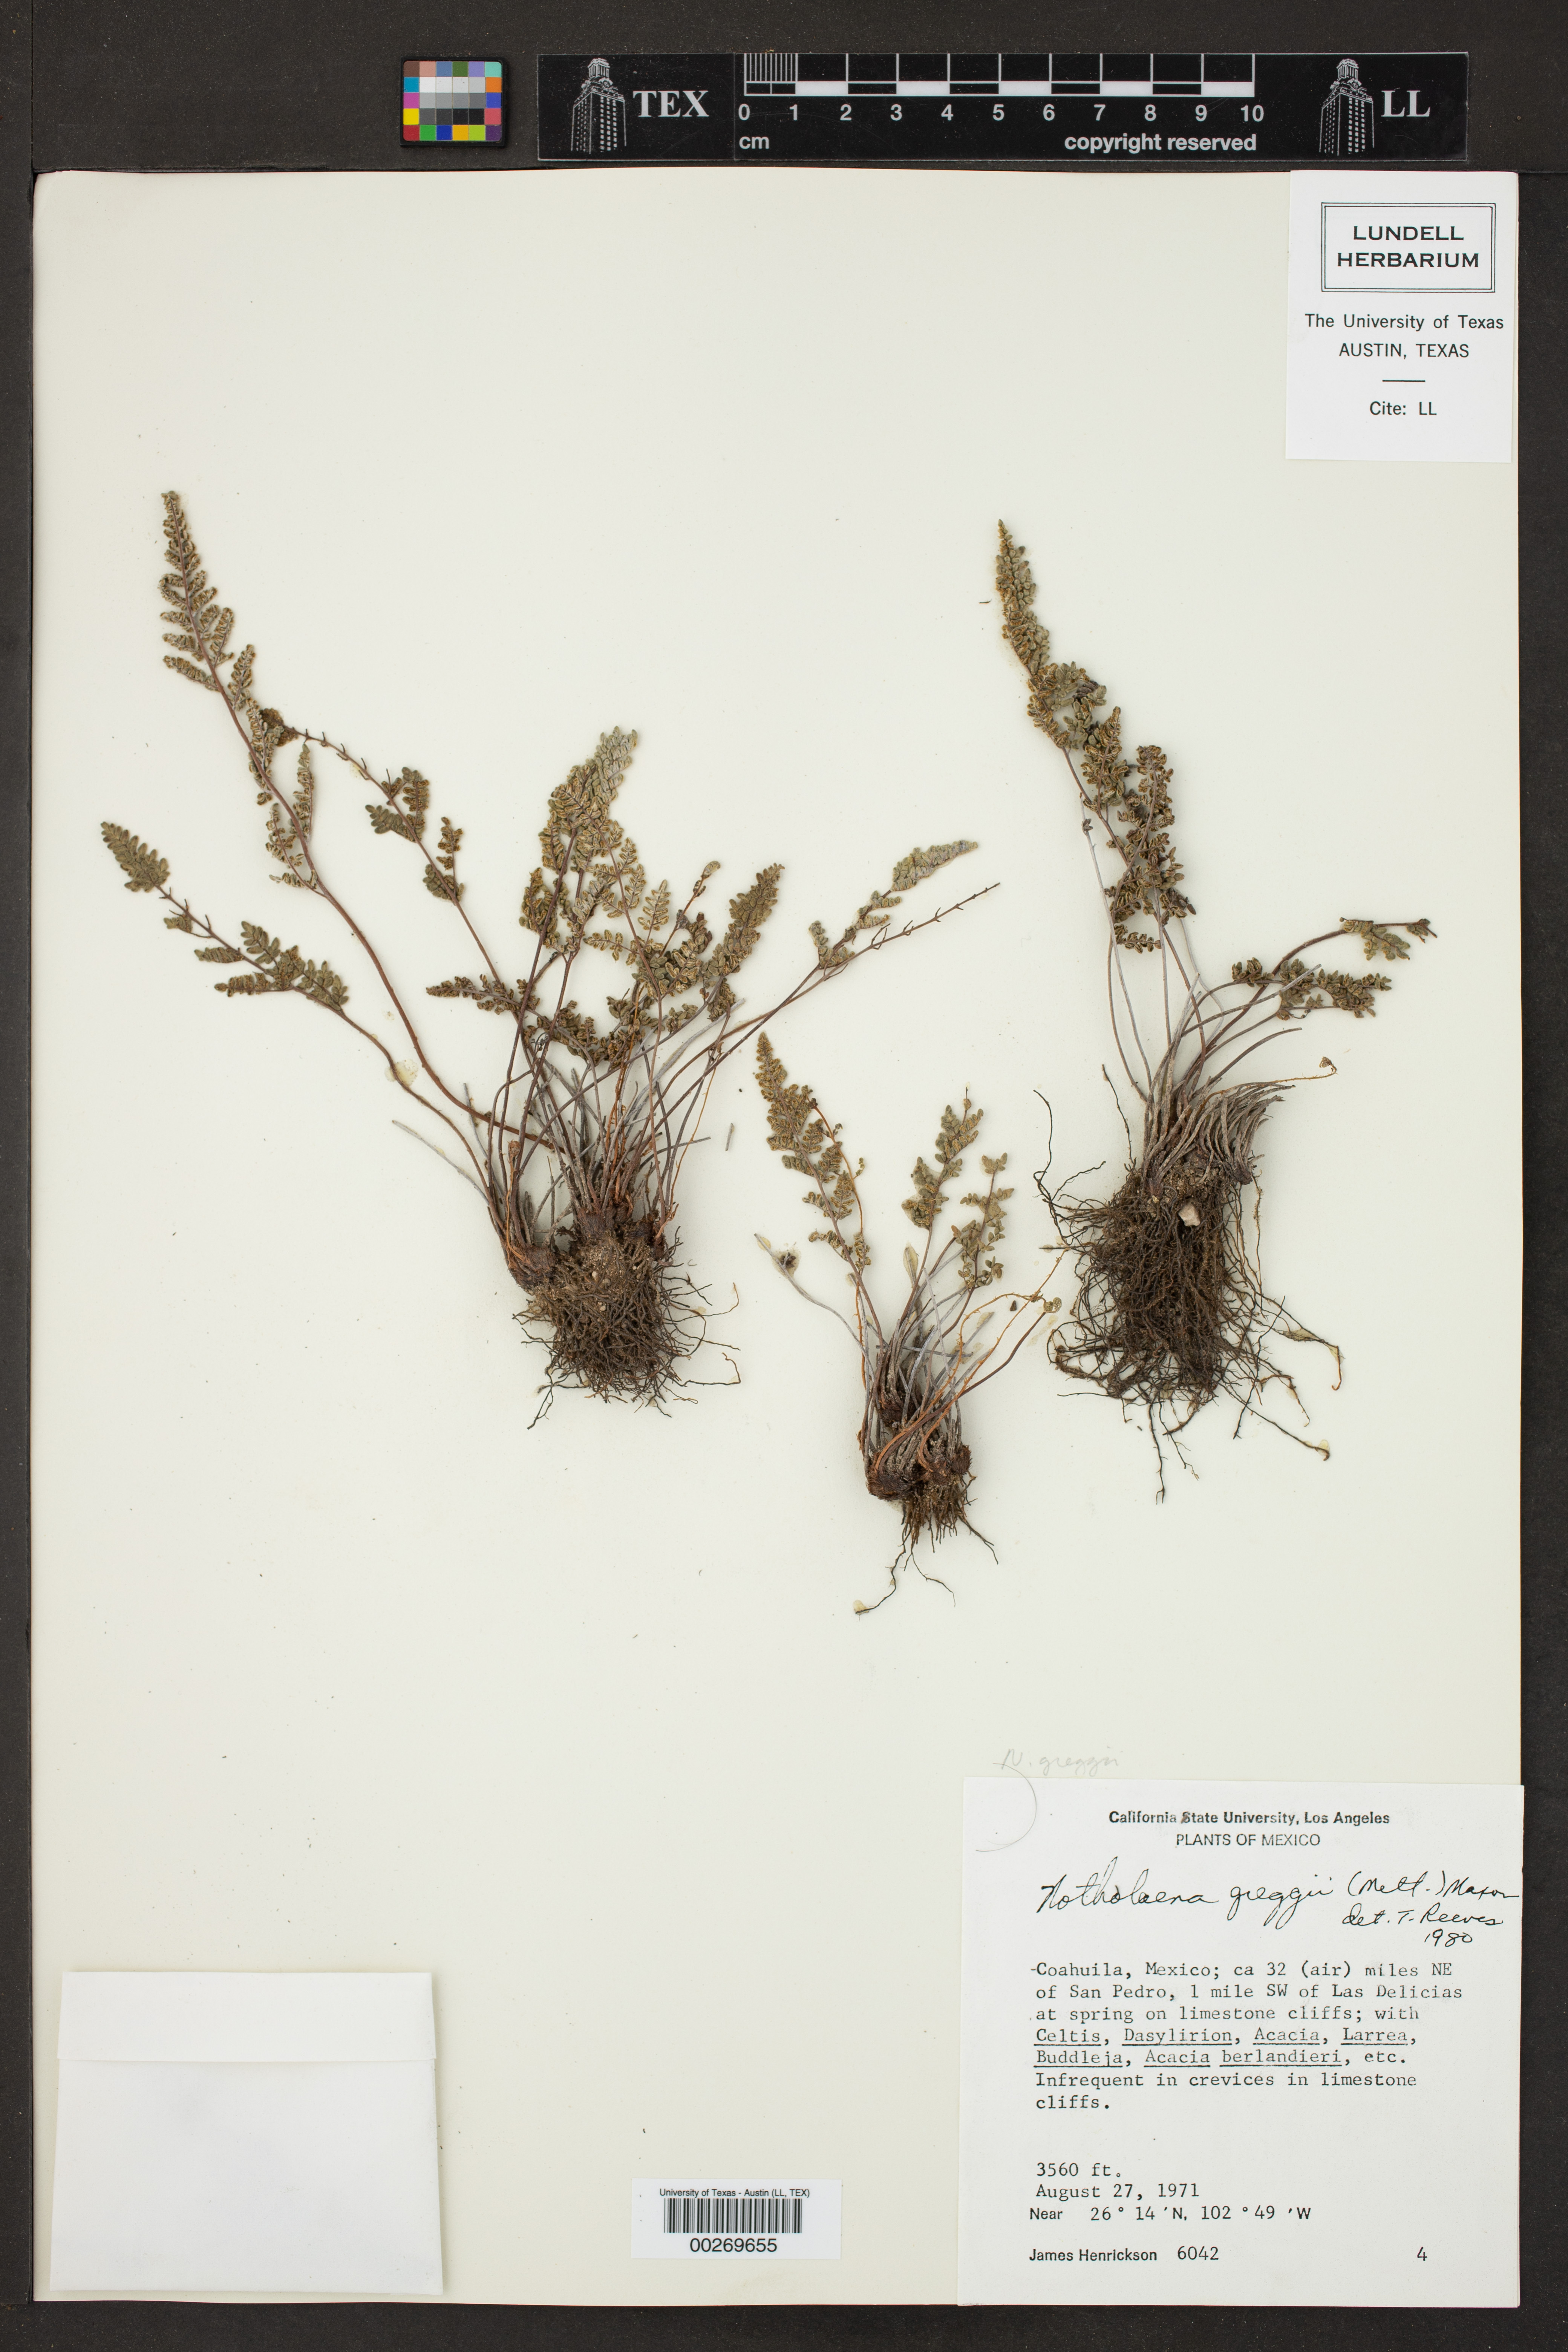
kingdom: Plantae
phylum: Tracheophyta
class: Polypodiopsida
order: Polypodiales
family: Pteridaceae
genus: Notholaena
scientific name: Notholaena greggii
